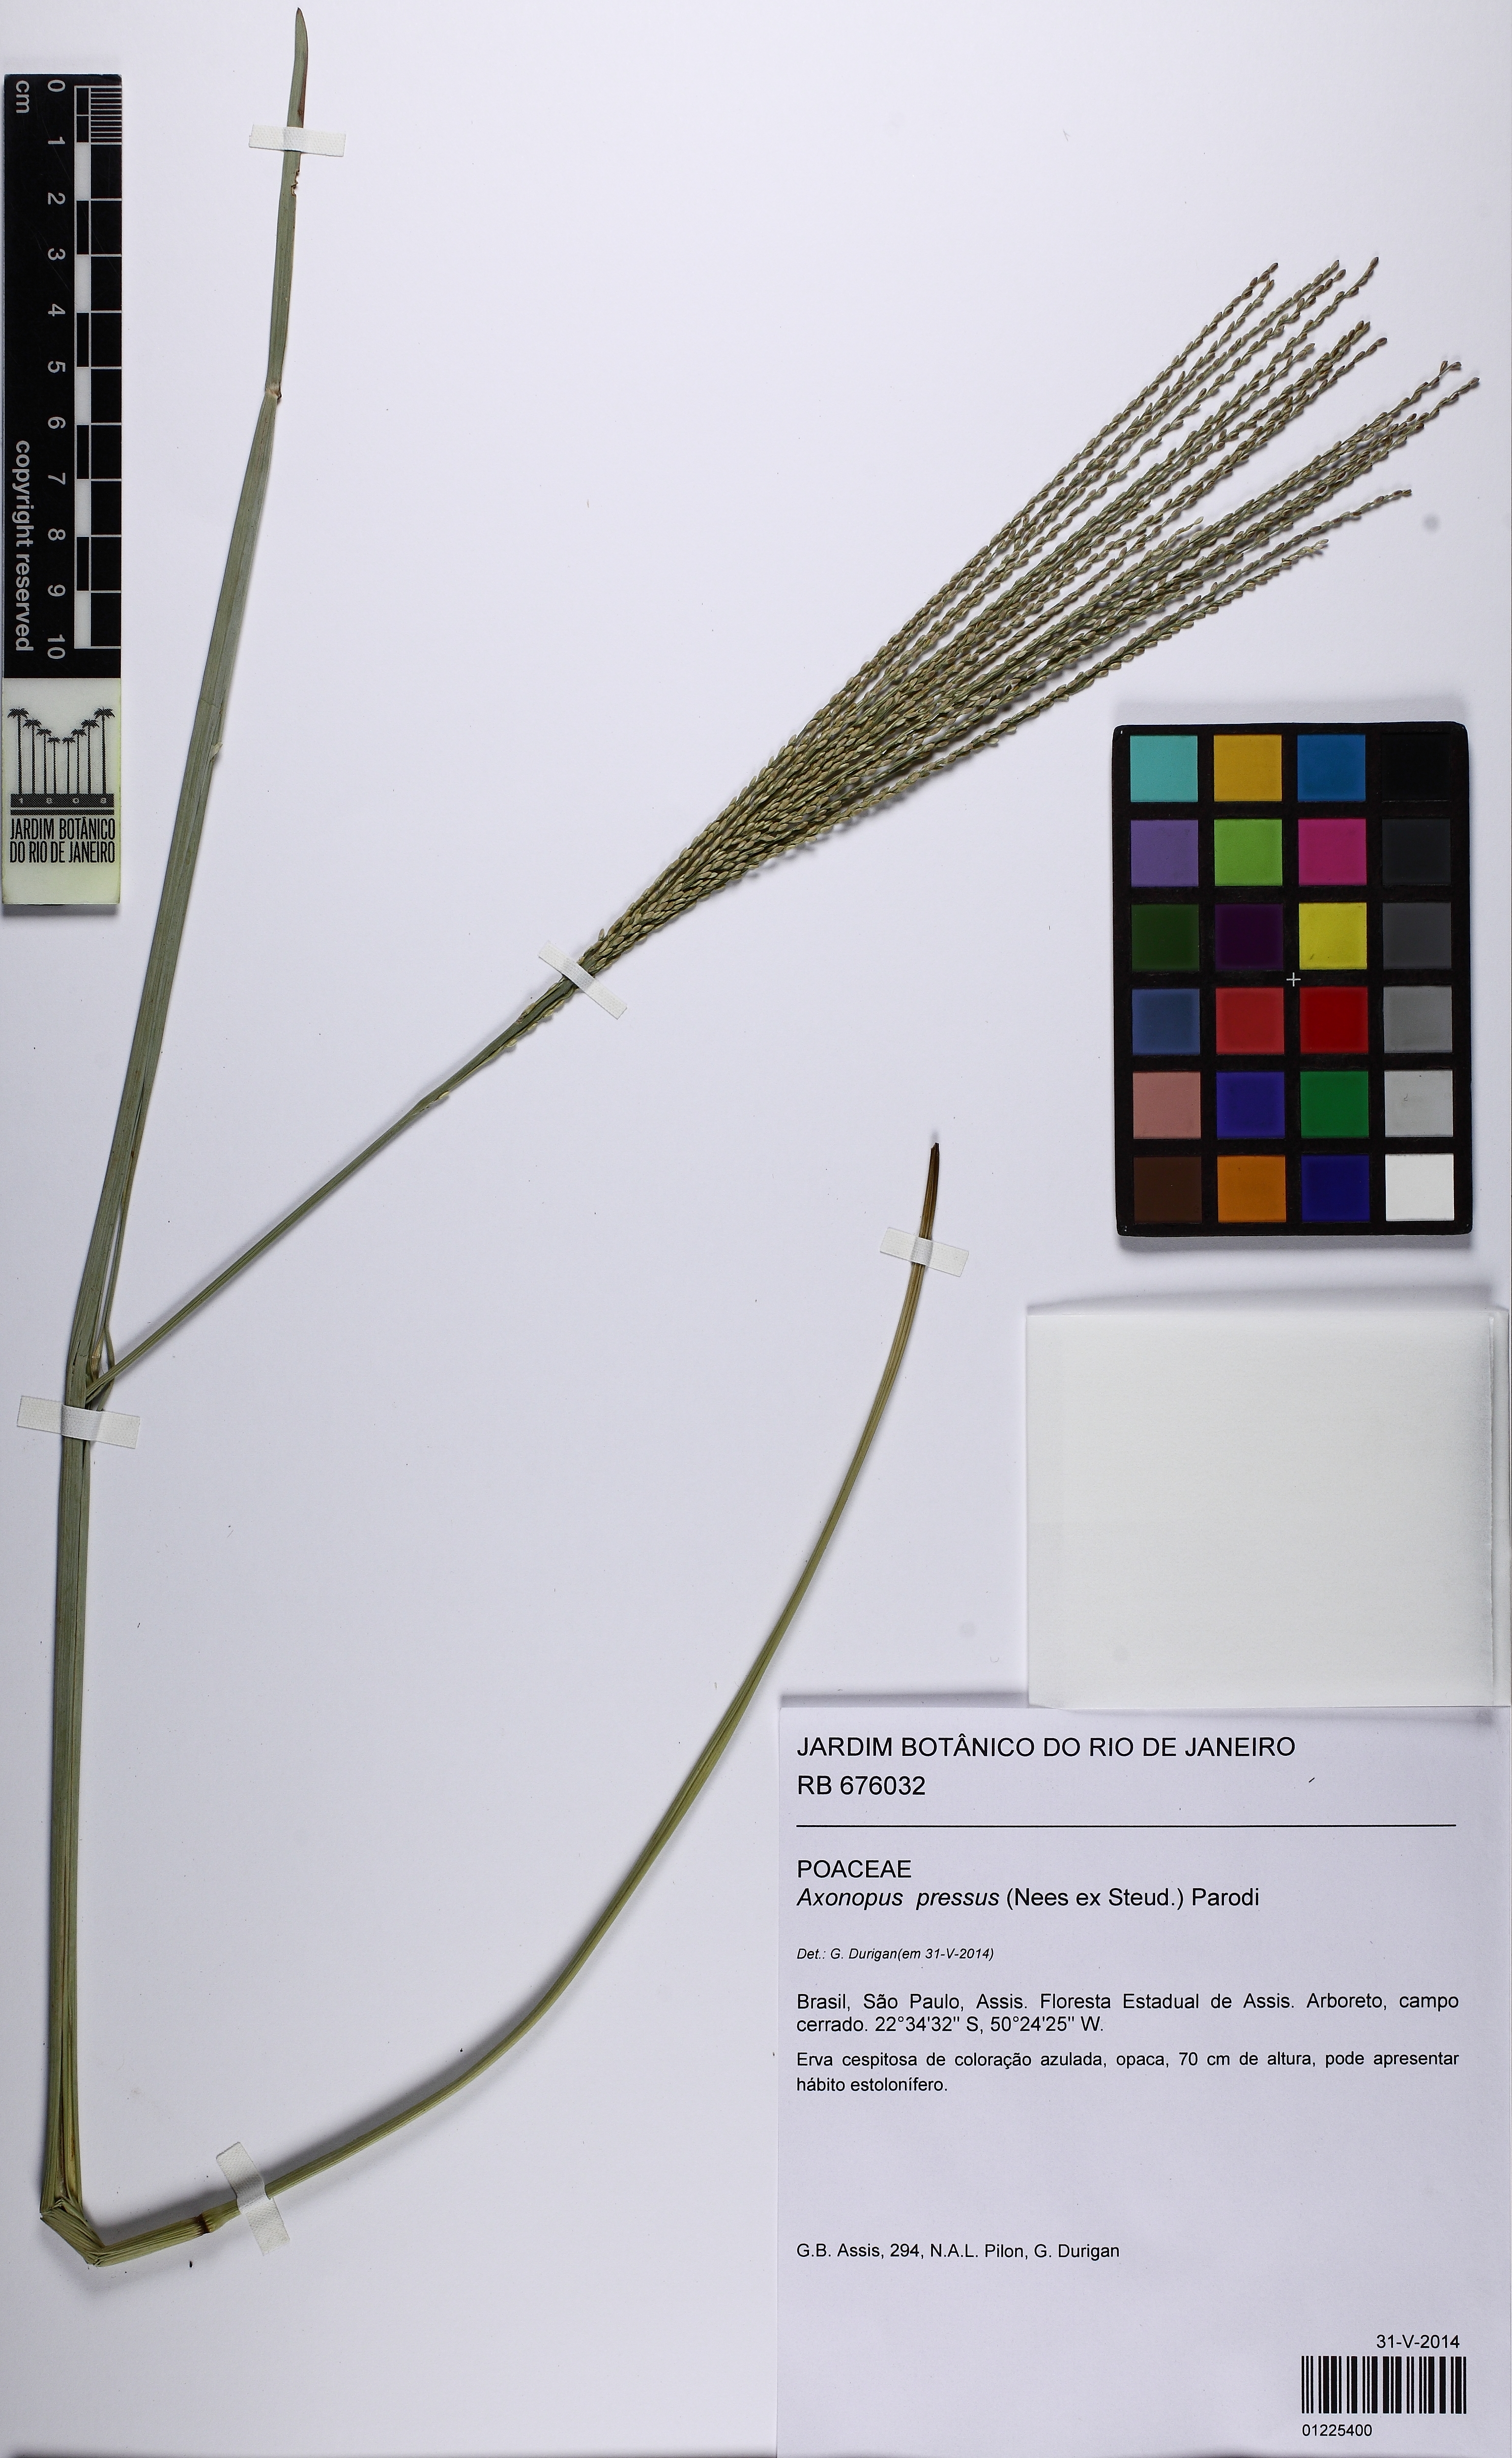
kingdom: Plantae
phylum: Tracheophyta
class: Liliopsida
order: Poales
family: Poaceae
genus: Axonopus
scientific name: Axonopus pressus
